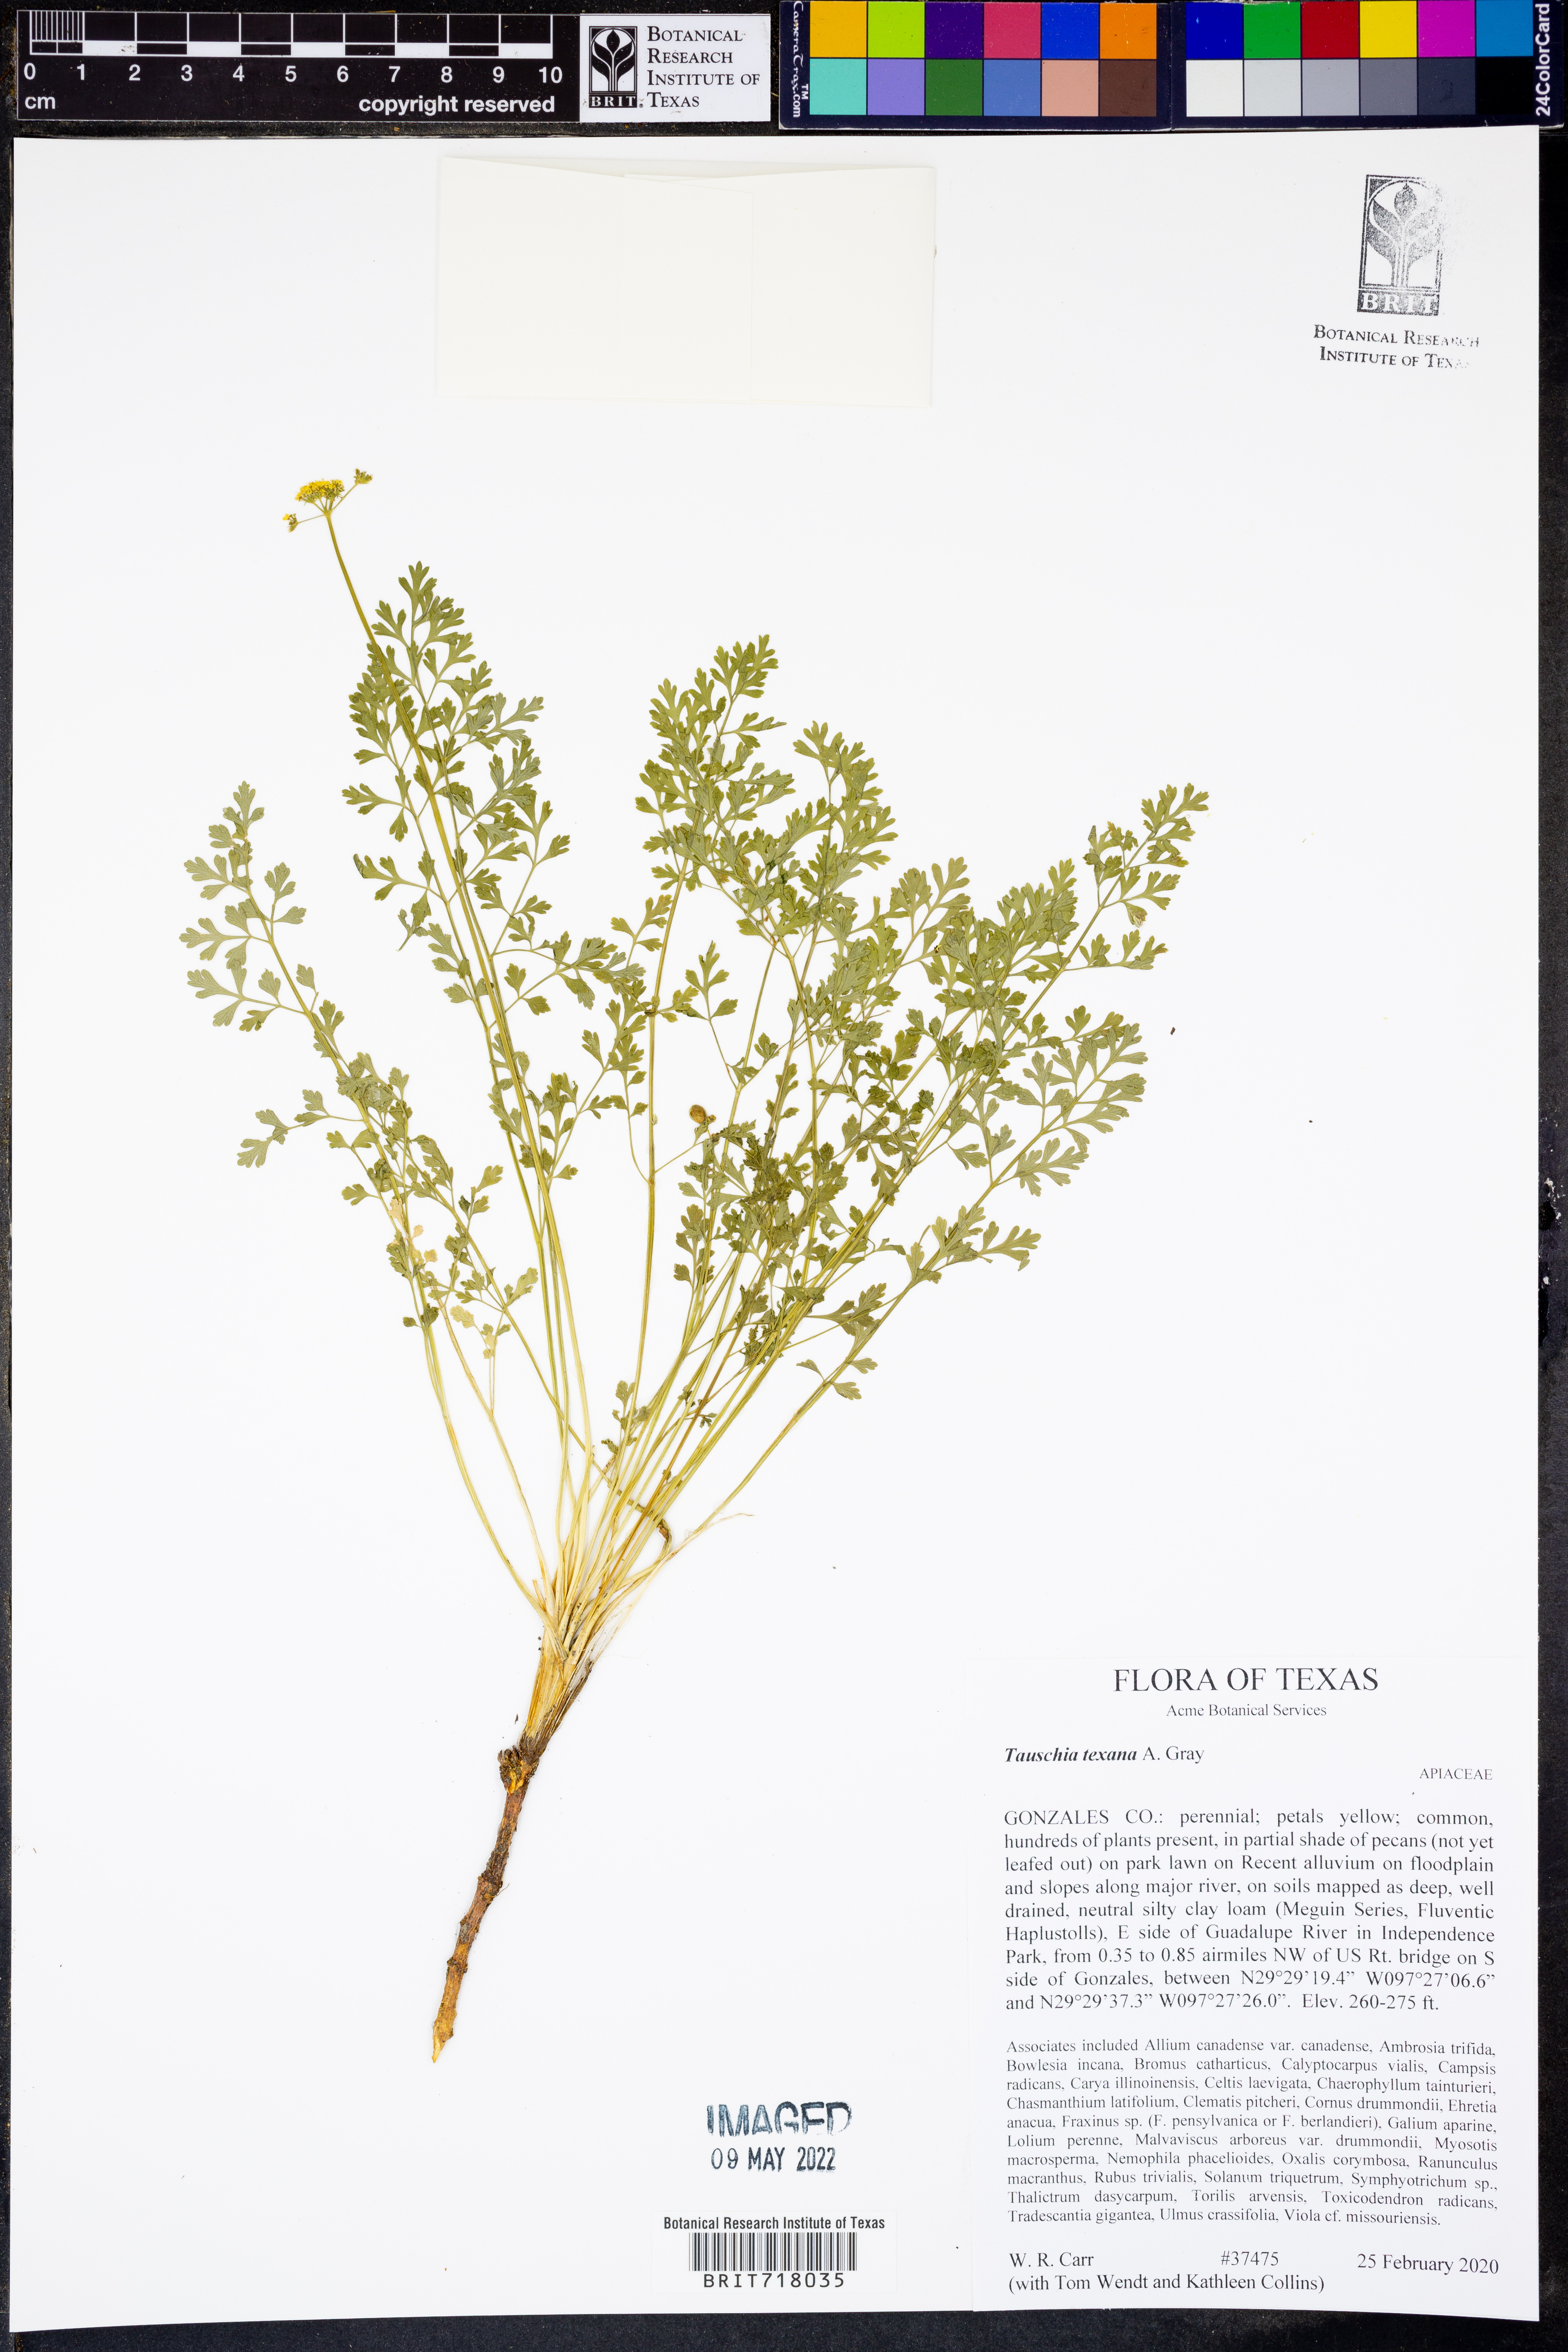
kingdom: Plantae
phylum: Tracheophyta
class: Magnoliopsida
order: Apiales
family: Apiaceae
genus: Tauschia
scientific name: Tauschia texana
